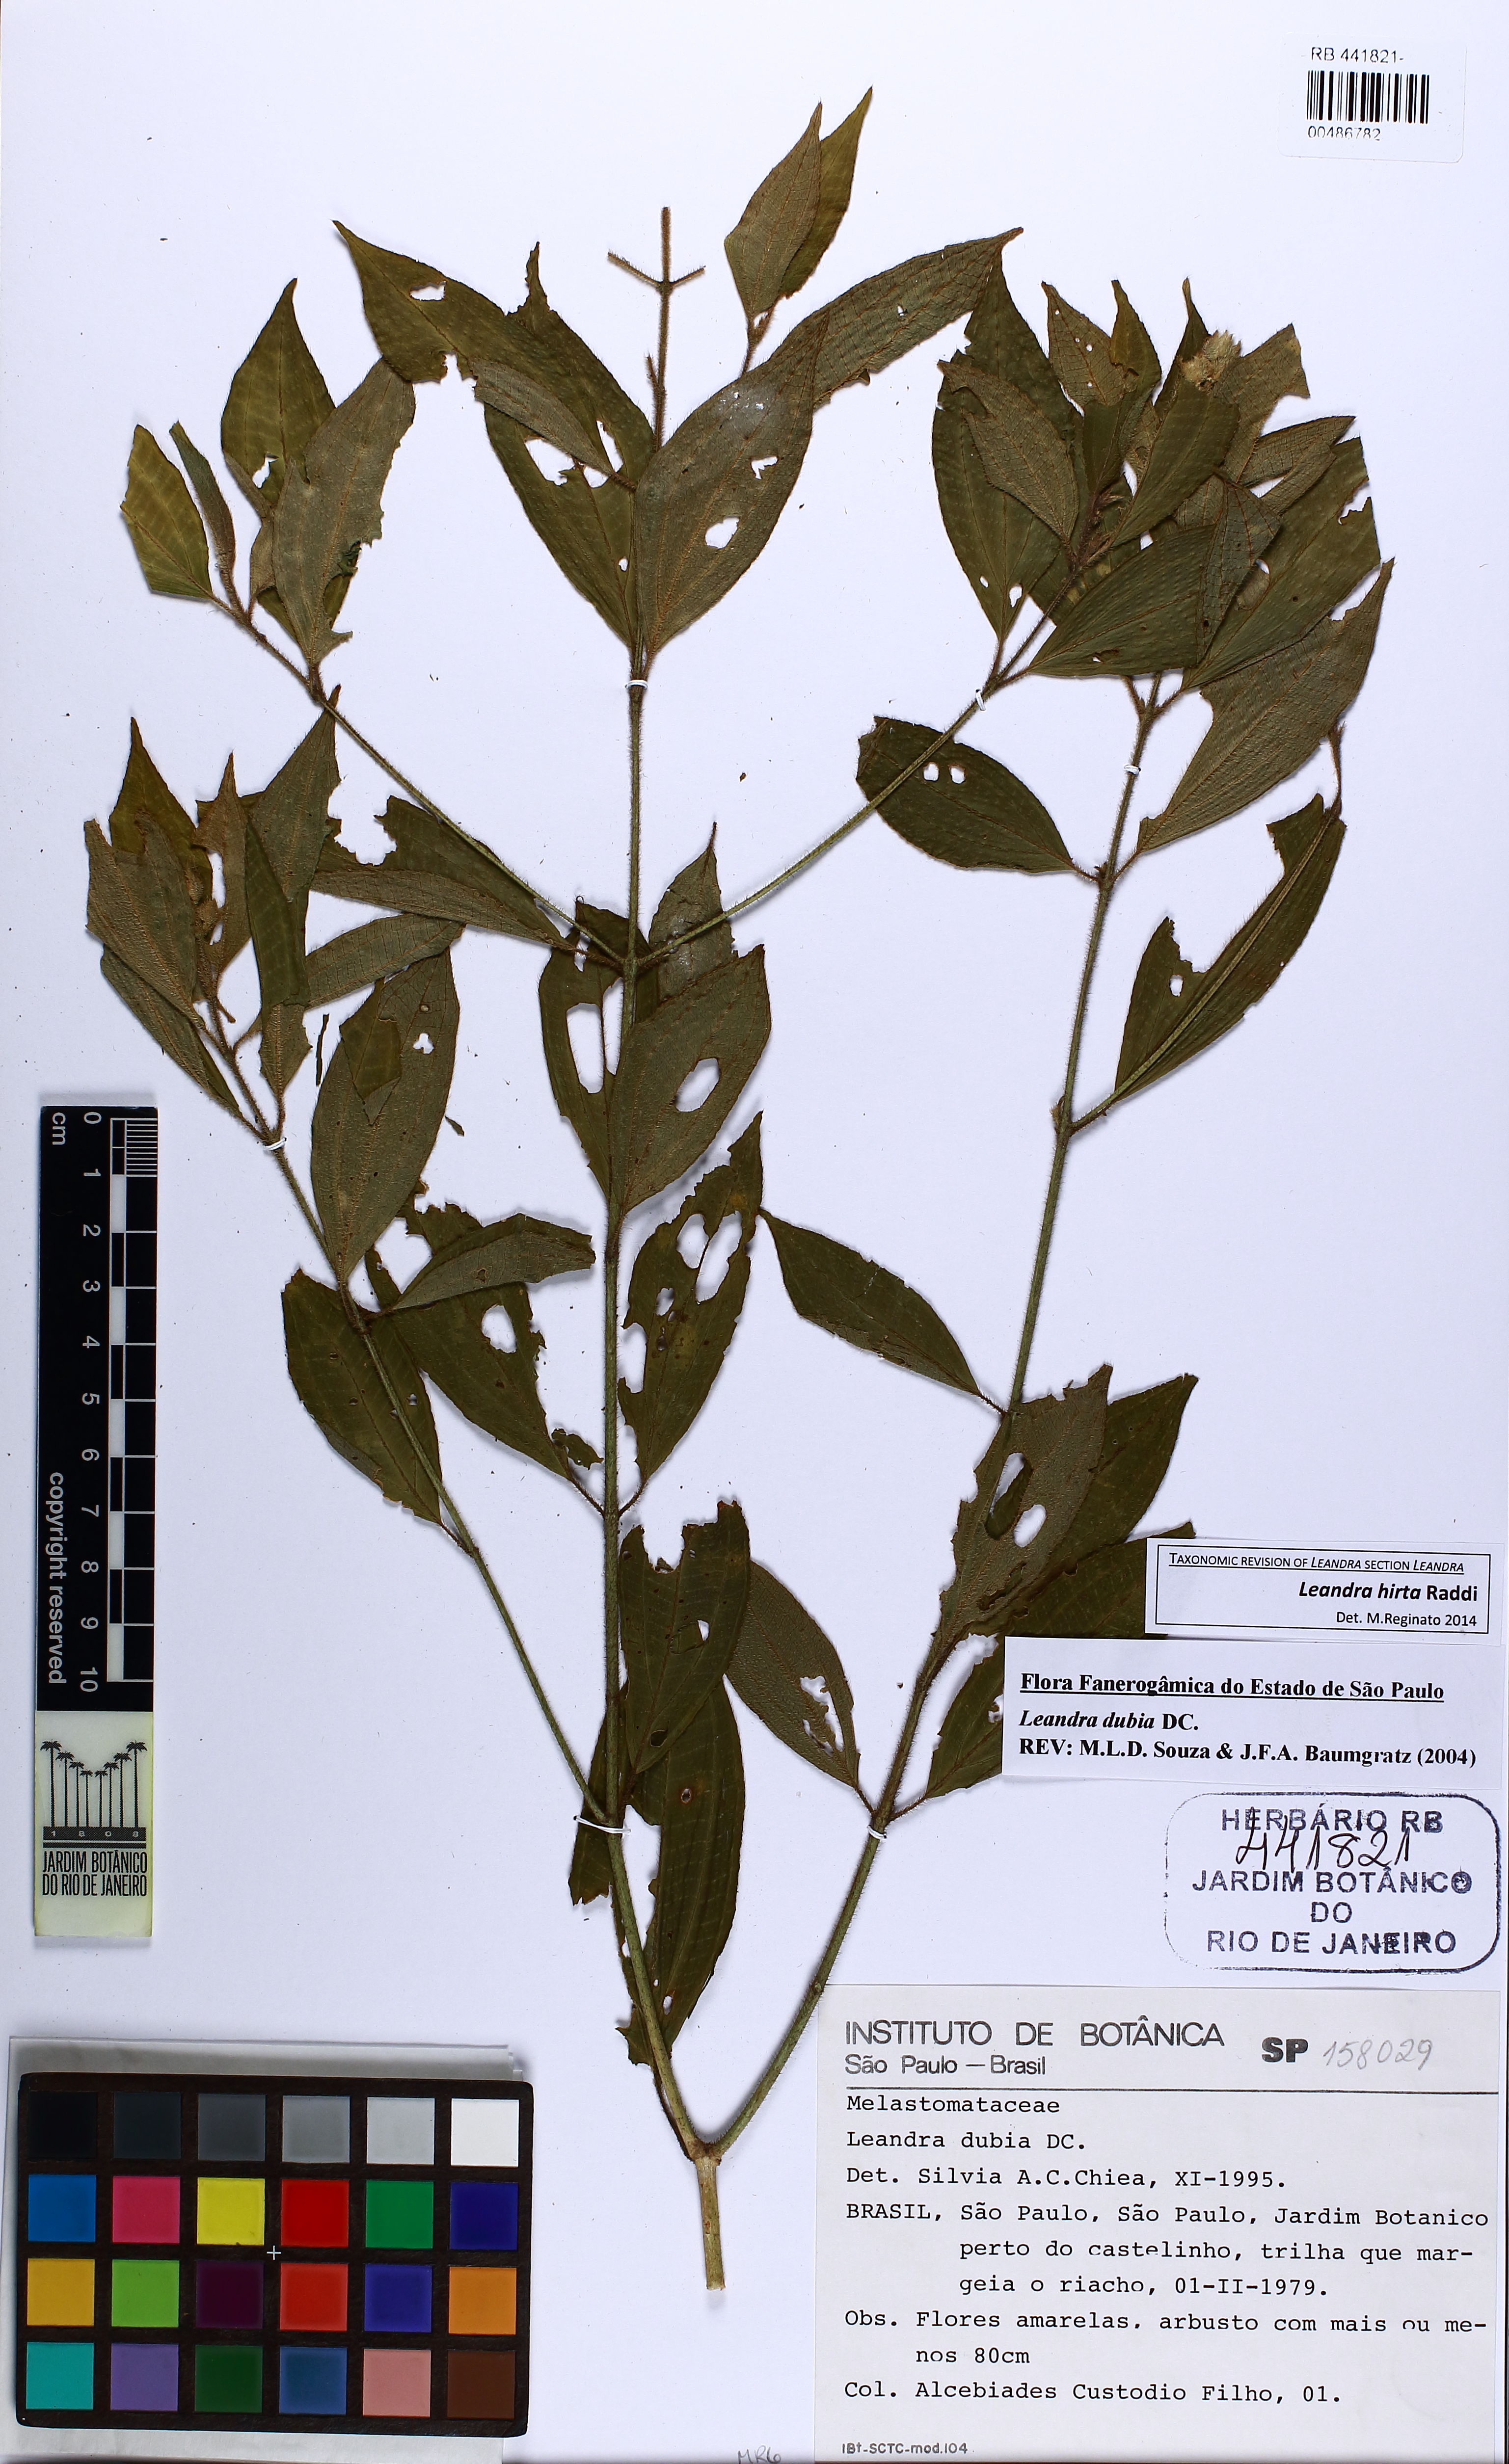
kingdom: Plantae
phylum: Tracheophyta
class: Magnoliopsida
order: Myrtales
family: Melastomataceae
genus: Miconia
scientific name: Miconia dubia
